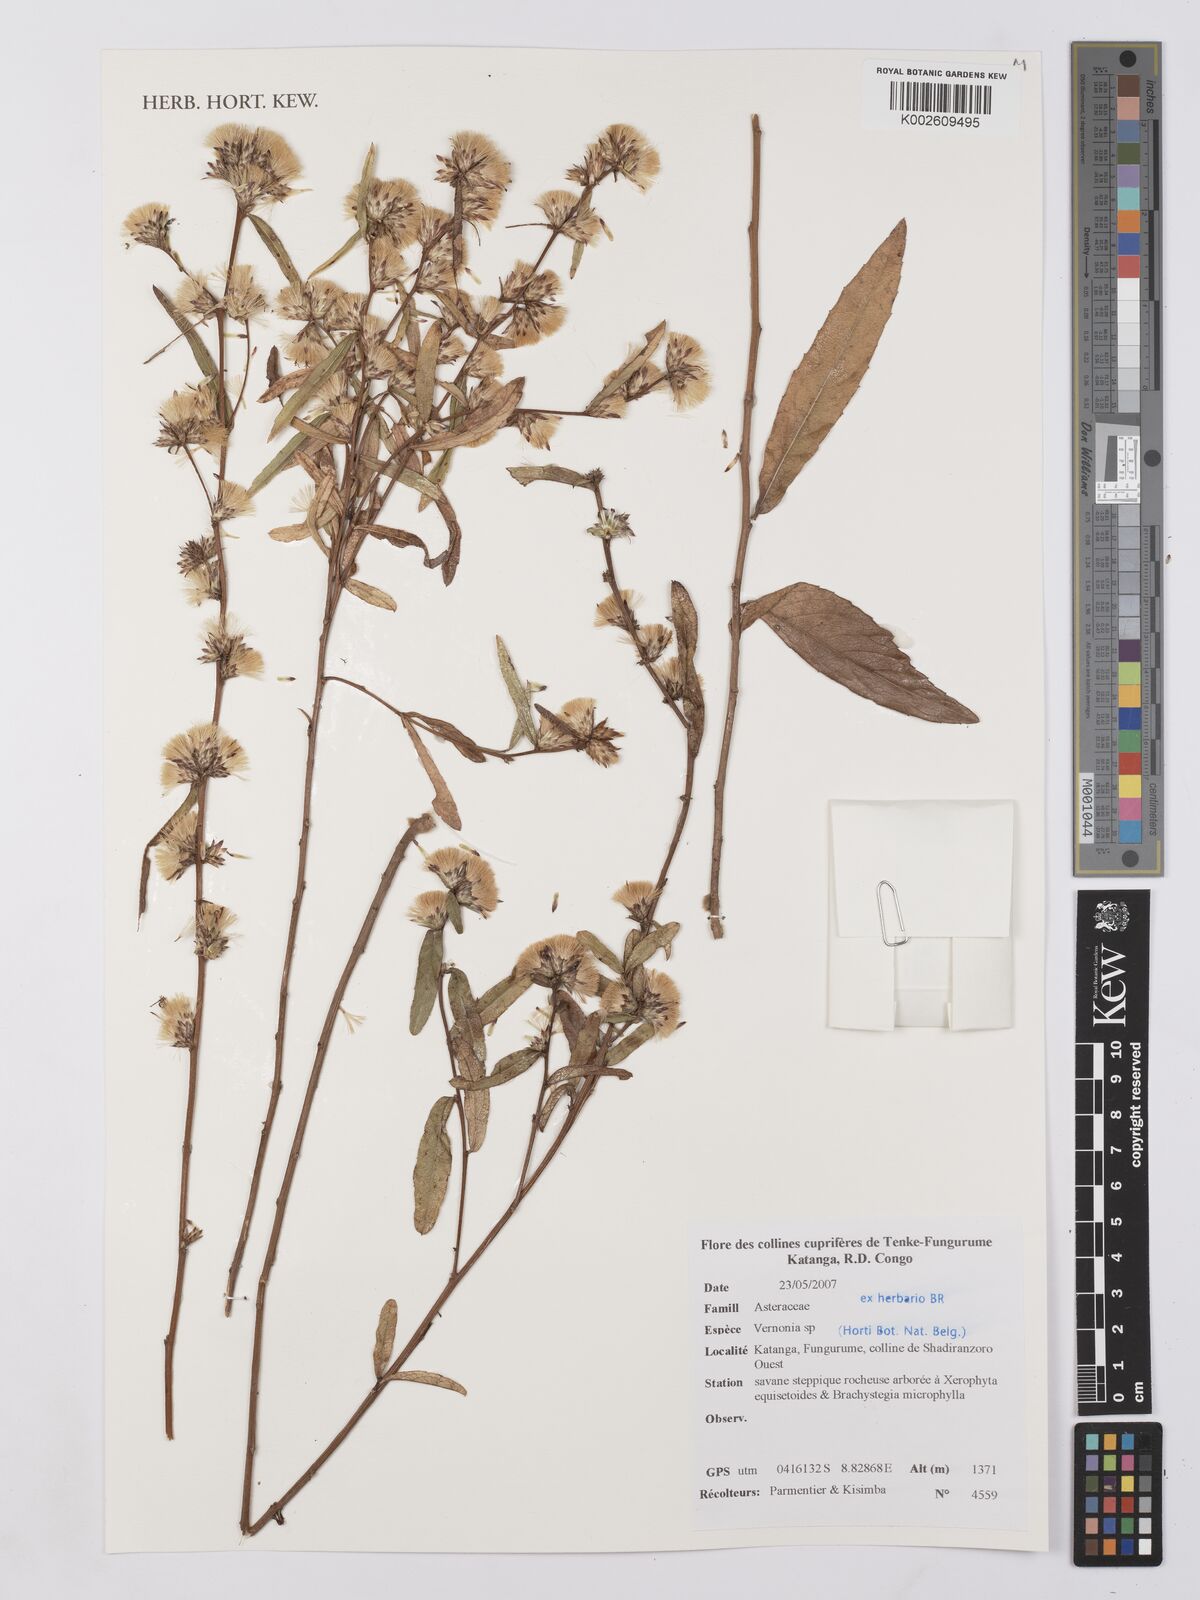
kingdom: Plantae
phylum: Tracheophyta
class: Magnoliopsida
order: Asterales
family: Asteraceae
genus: Vernonia
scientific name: Vernonia
